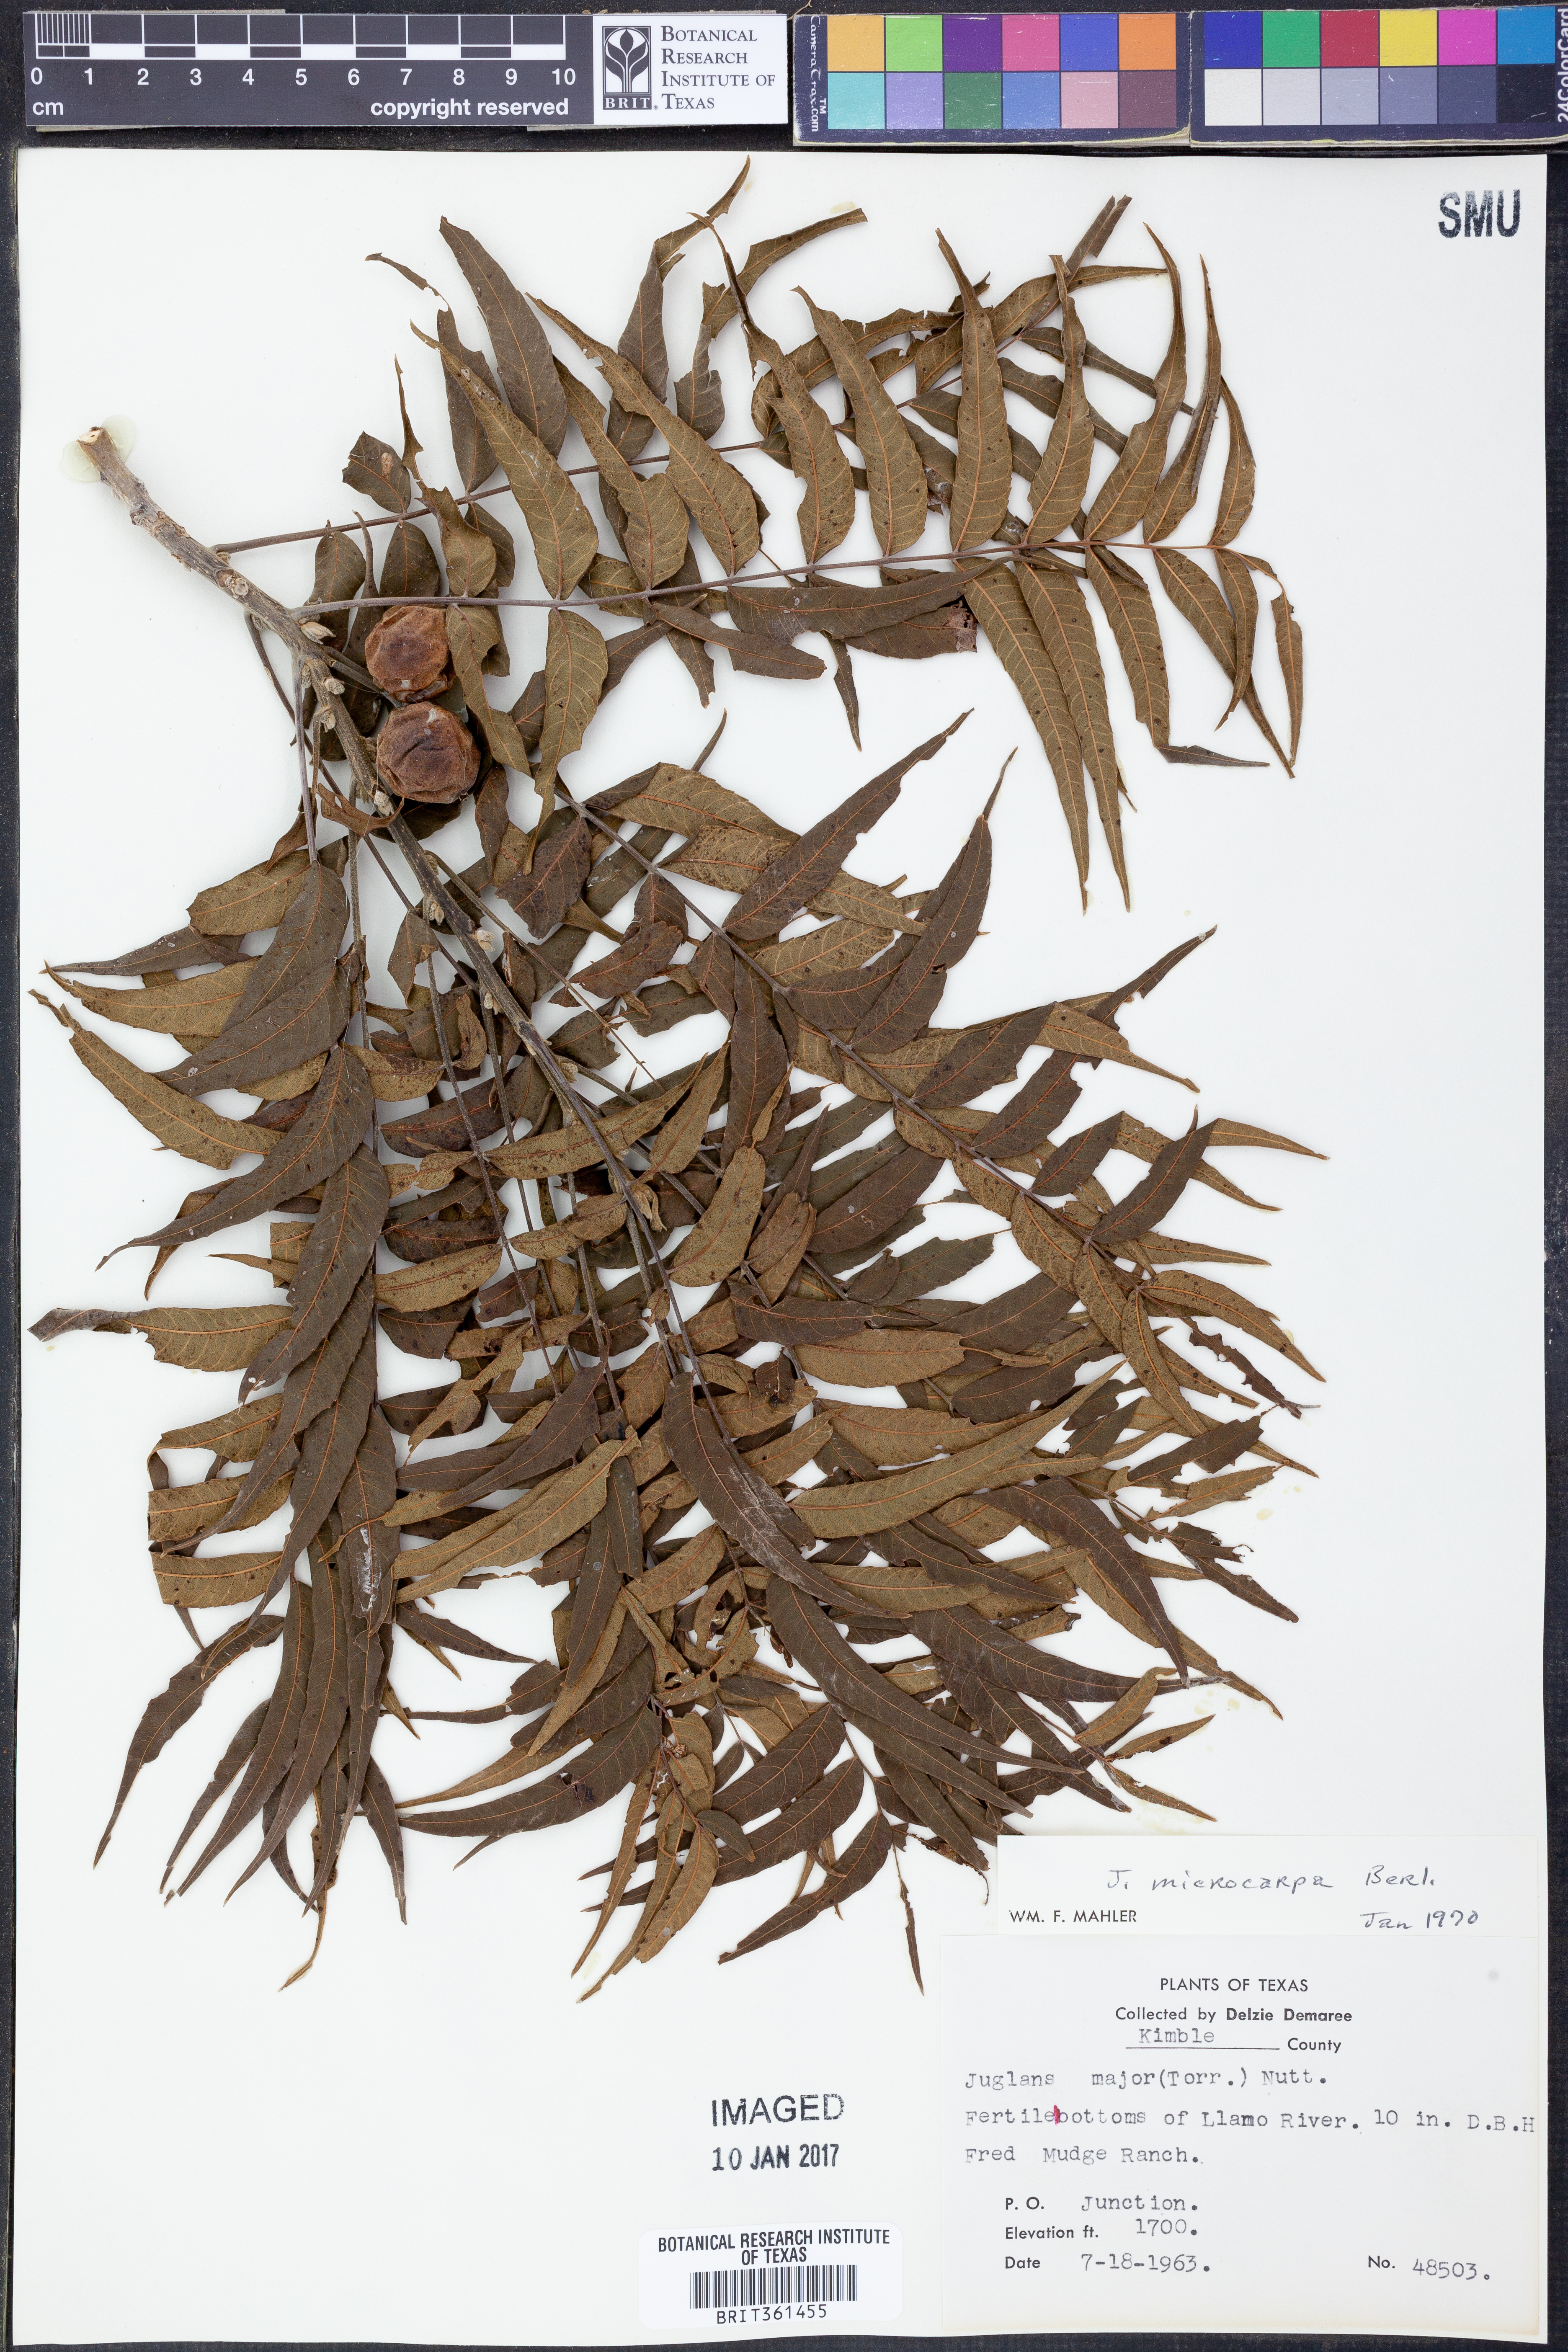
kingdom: Plantae
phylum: Tracheophyta
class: Magnoliopsida
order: Fagales
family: Juglandaceae
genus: Juglans
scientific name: Juglans microcarpa
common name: Texas walnut
